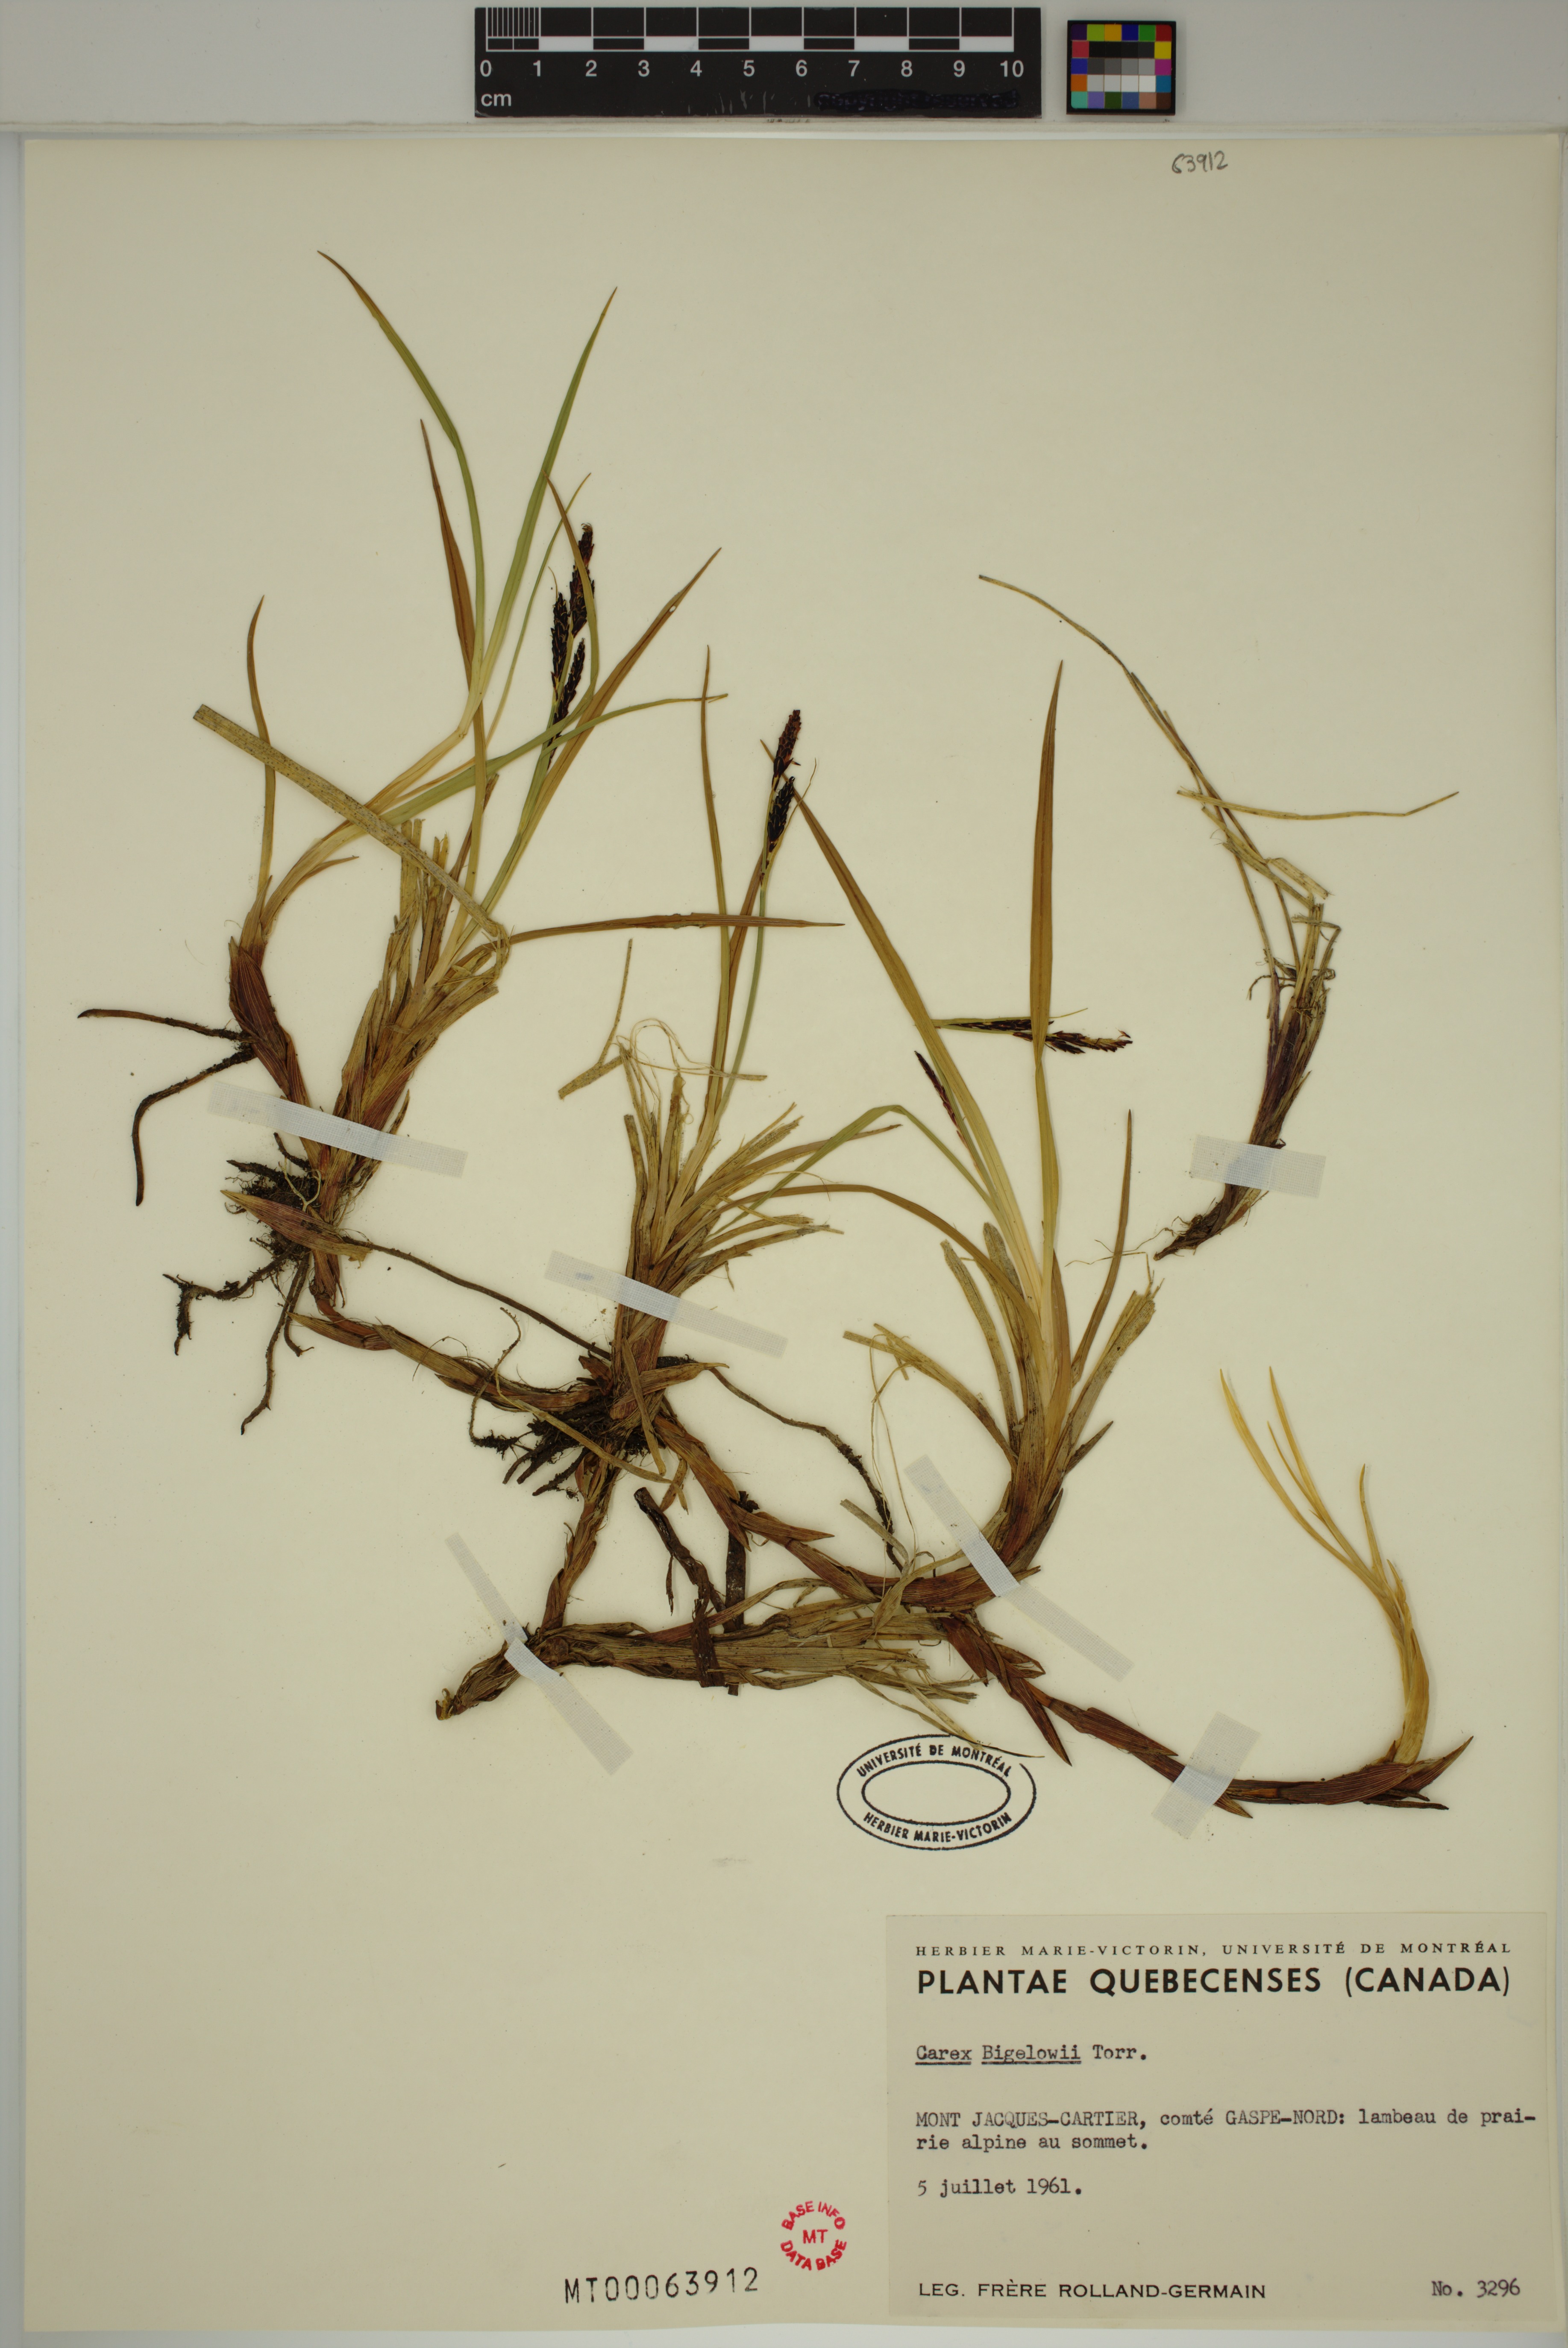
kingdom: Plantae
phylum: Tracheophyta
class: Liliopsida
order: Poales
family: Cyperaceae
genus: Carex
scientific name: Carex bigelowii
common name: Stiff sedge
